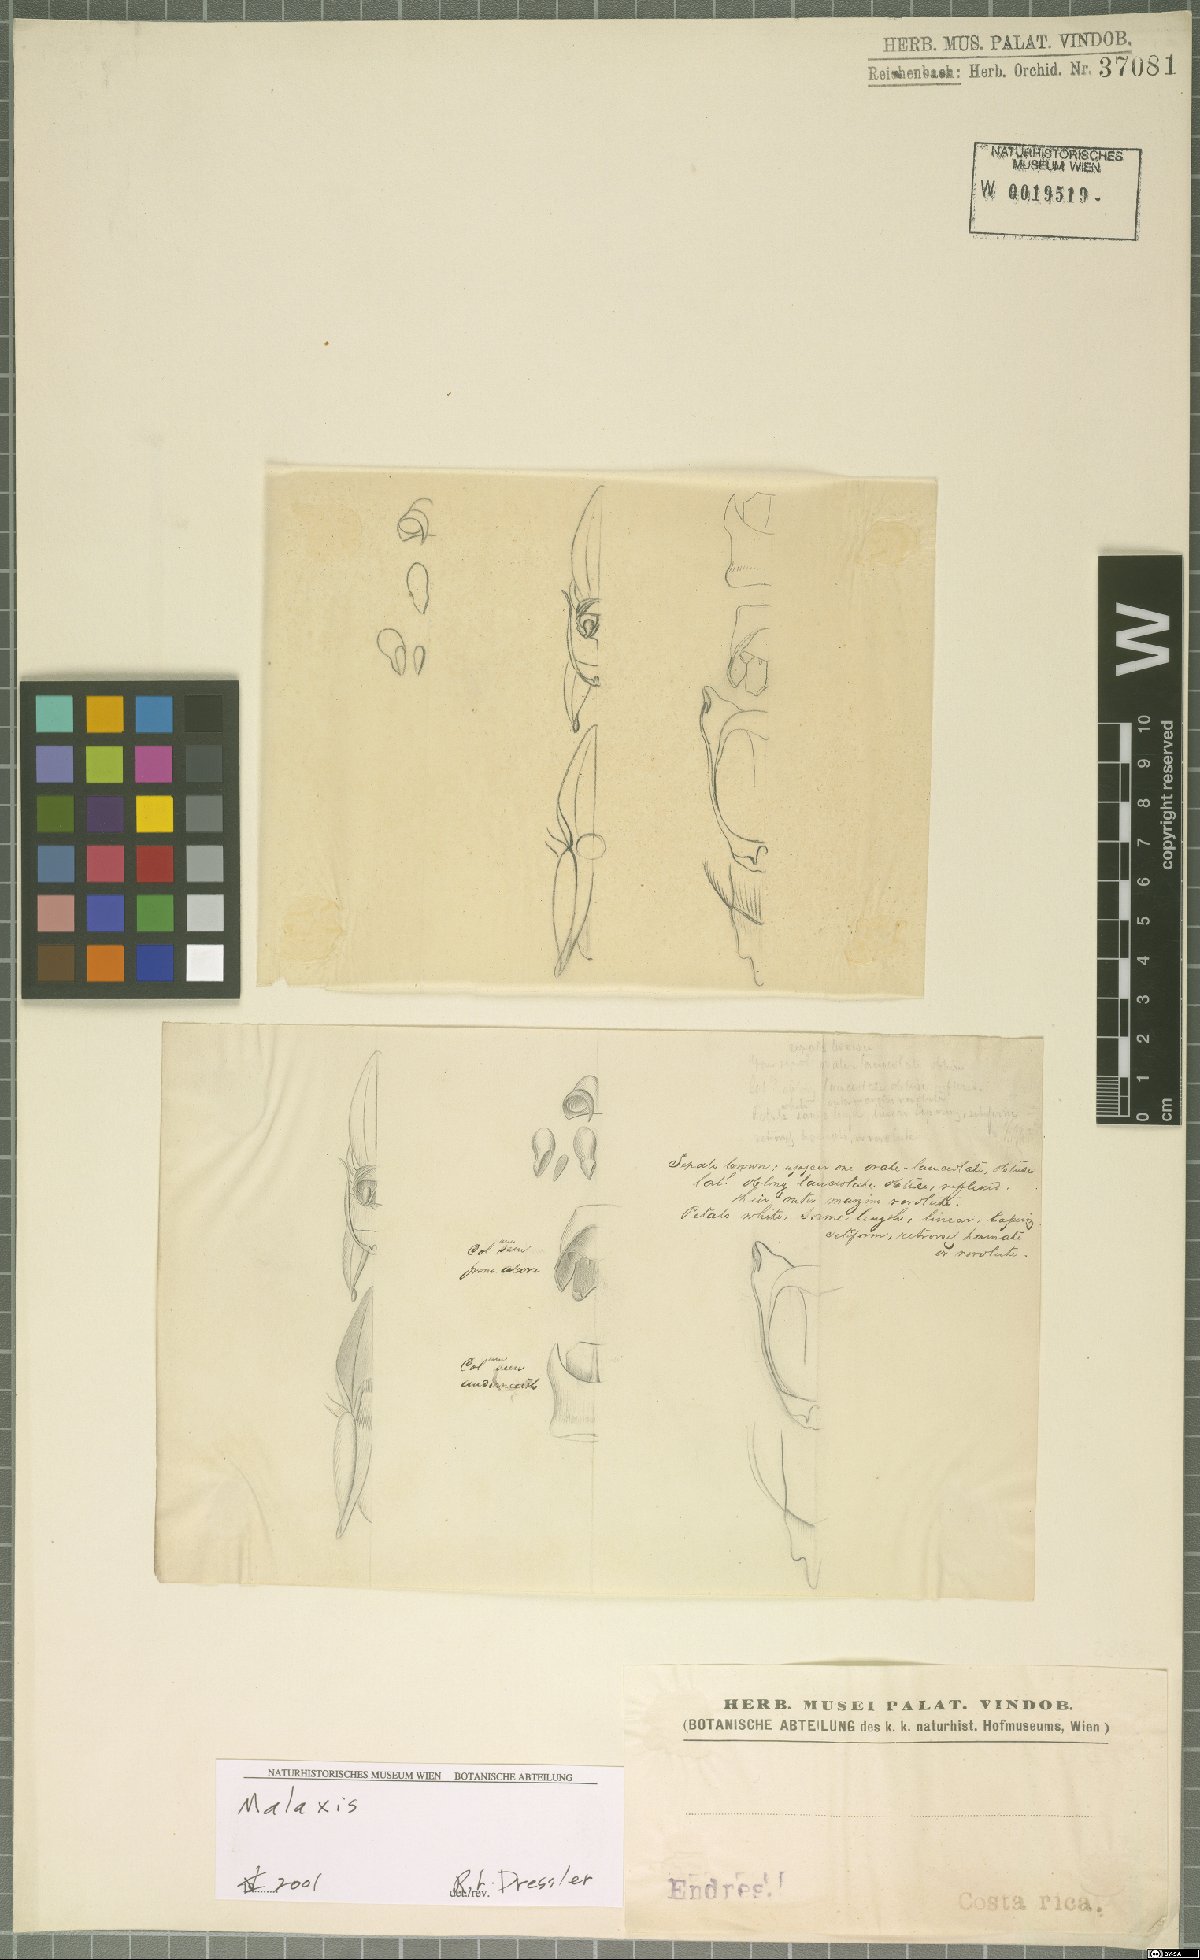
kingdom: Plantae
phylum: Tracheophyta
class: Liliopsida
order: Asparagales
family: Orchidaceae
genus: Malaxis
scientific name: Malaxis
